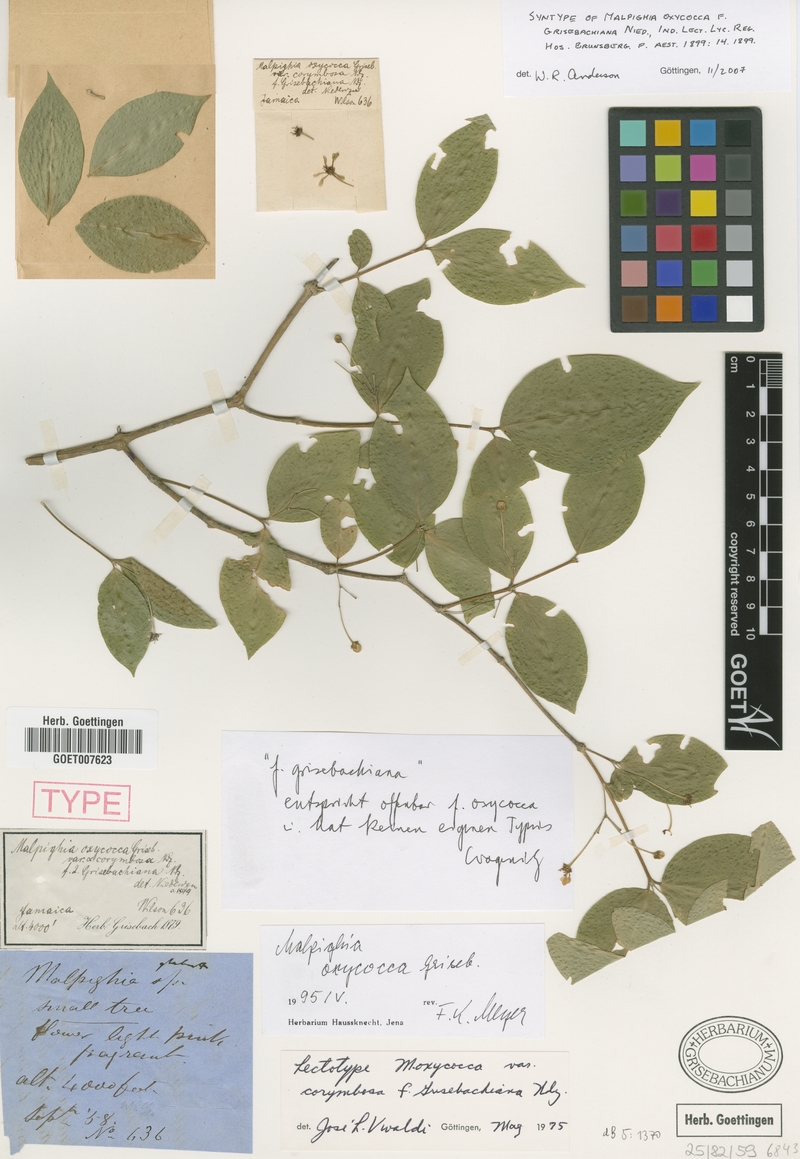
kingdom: Plantae
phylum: Tracheophyta
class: Magnoliopsida
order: Malpighiales
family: Malpighiaceae
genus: Malpighia
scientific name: Malpighia oxycocca
